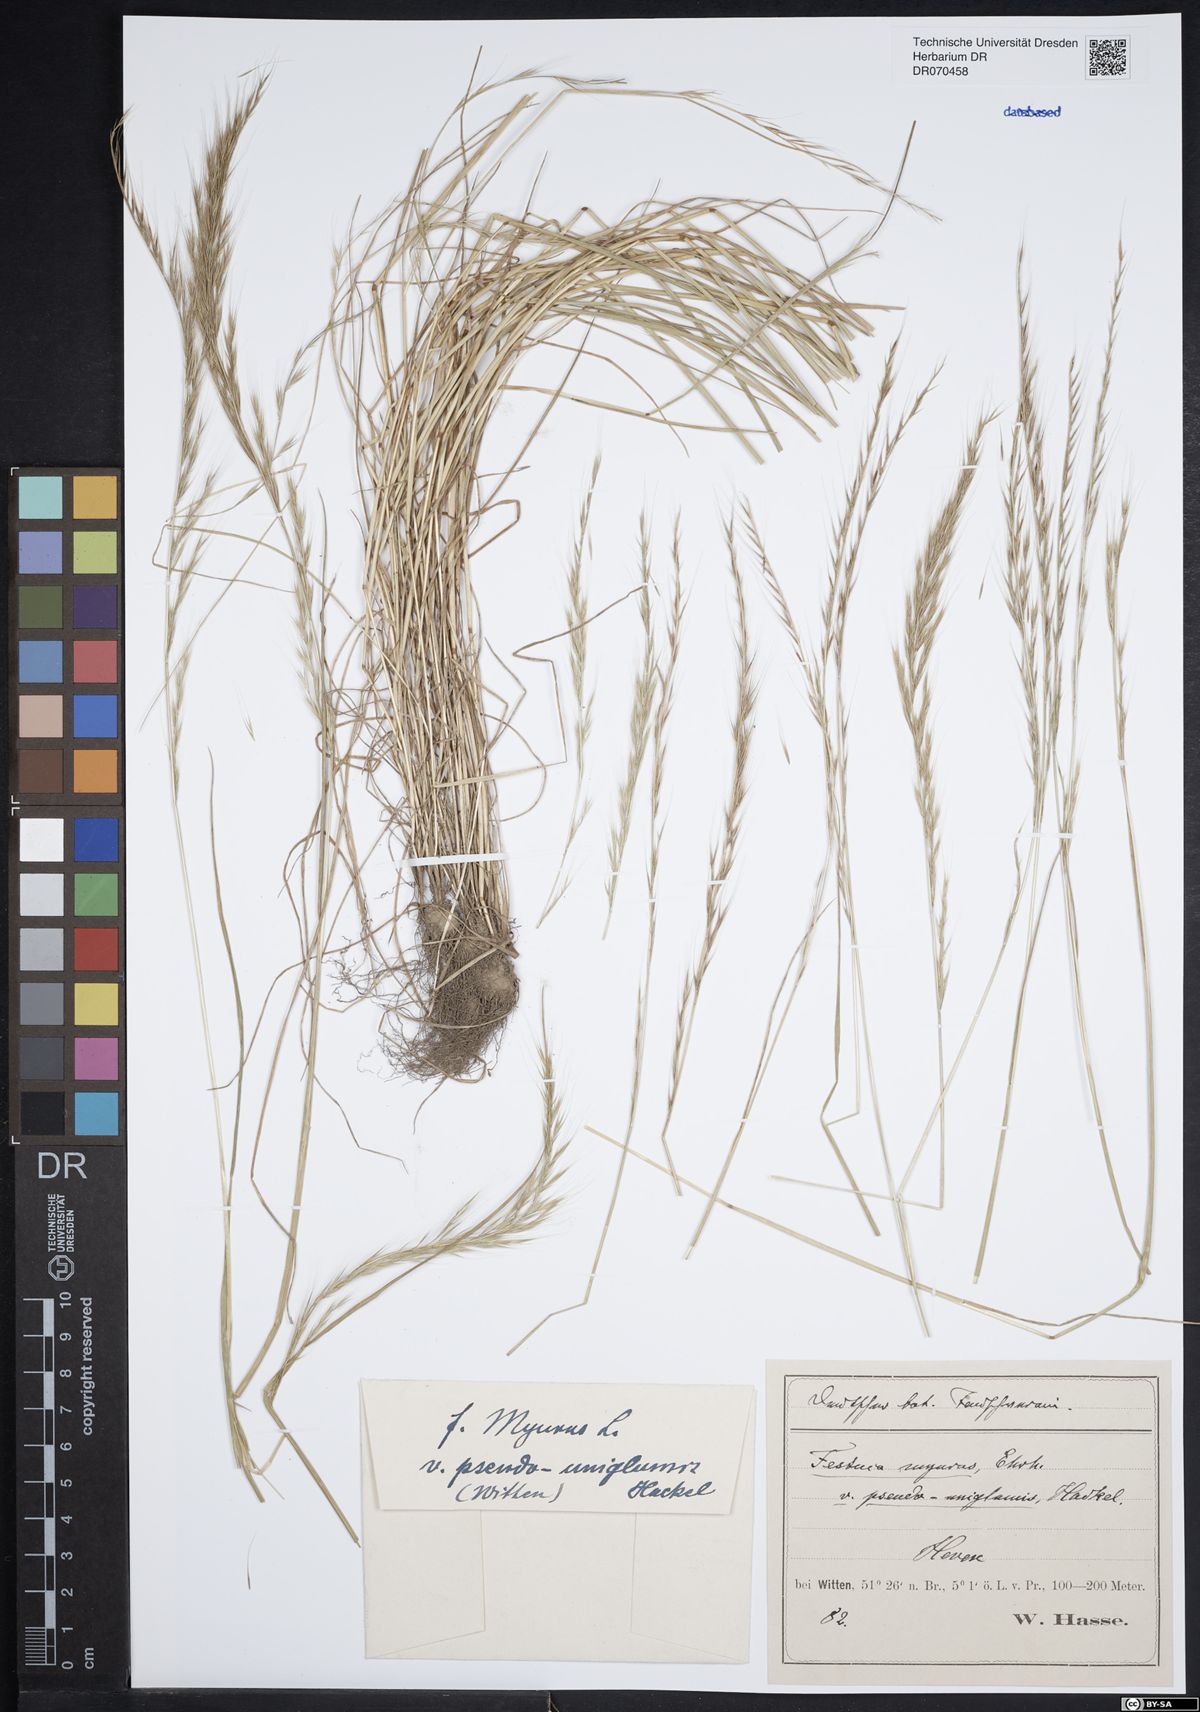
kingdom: Plantae
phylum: Tracheophyta
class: Liliopsida
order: Poales
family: Poaceae
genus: Festuca
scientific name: Festuca myuros
